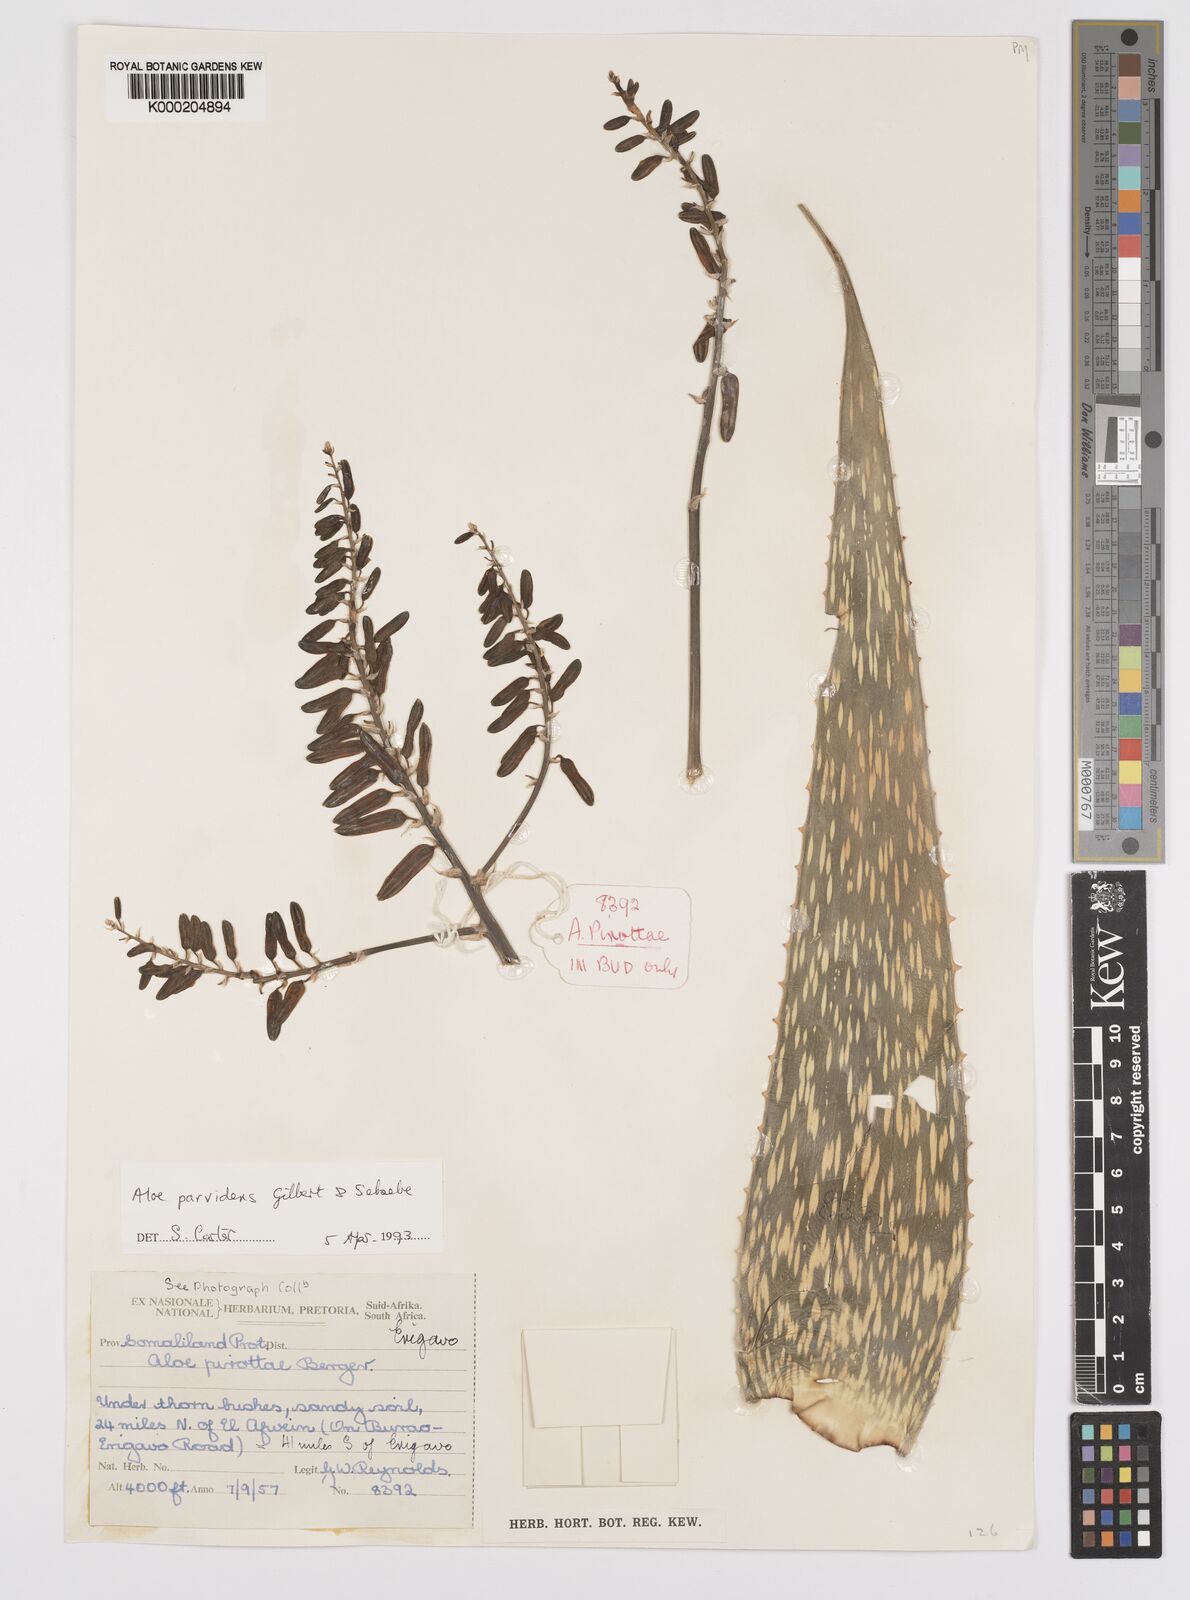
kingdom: Plantae
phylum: Tracheophyta
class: Liliopsida
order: Asparagales
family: Asphodelaceae
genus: Aloe
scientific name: Aloe parvidens
